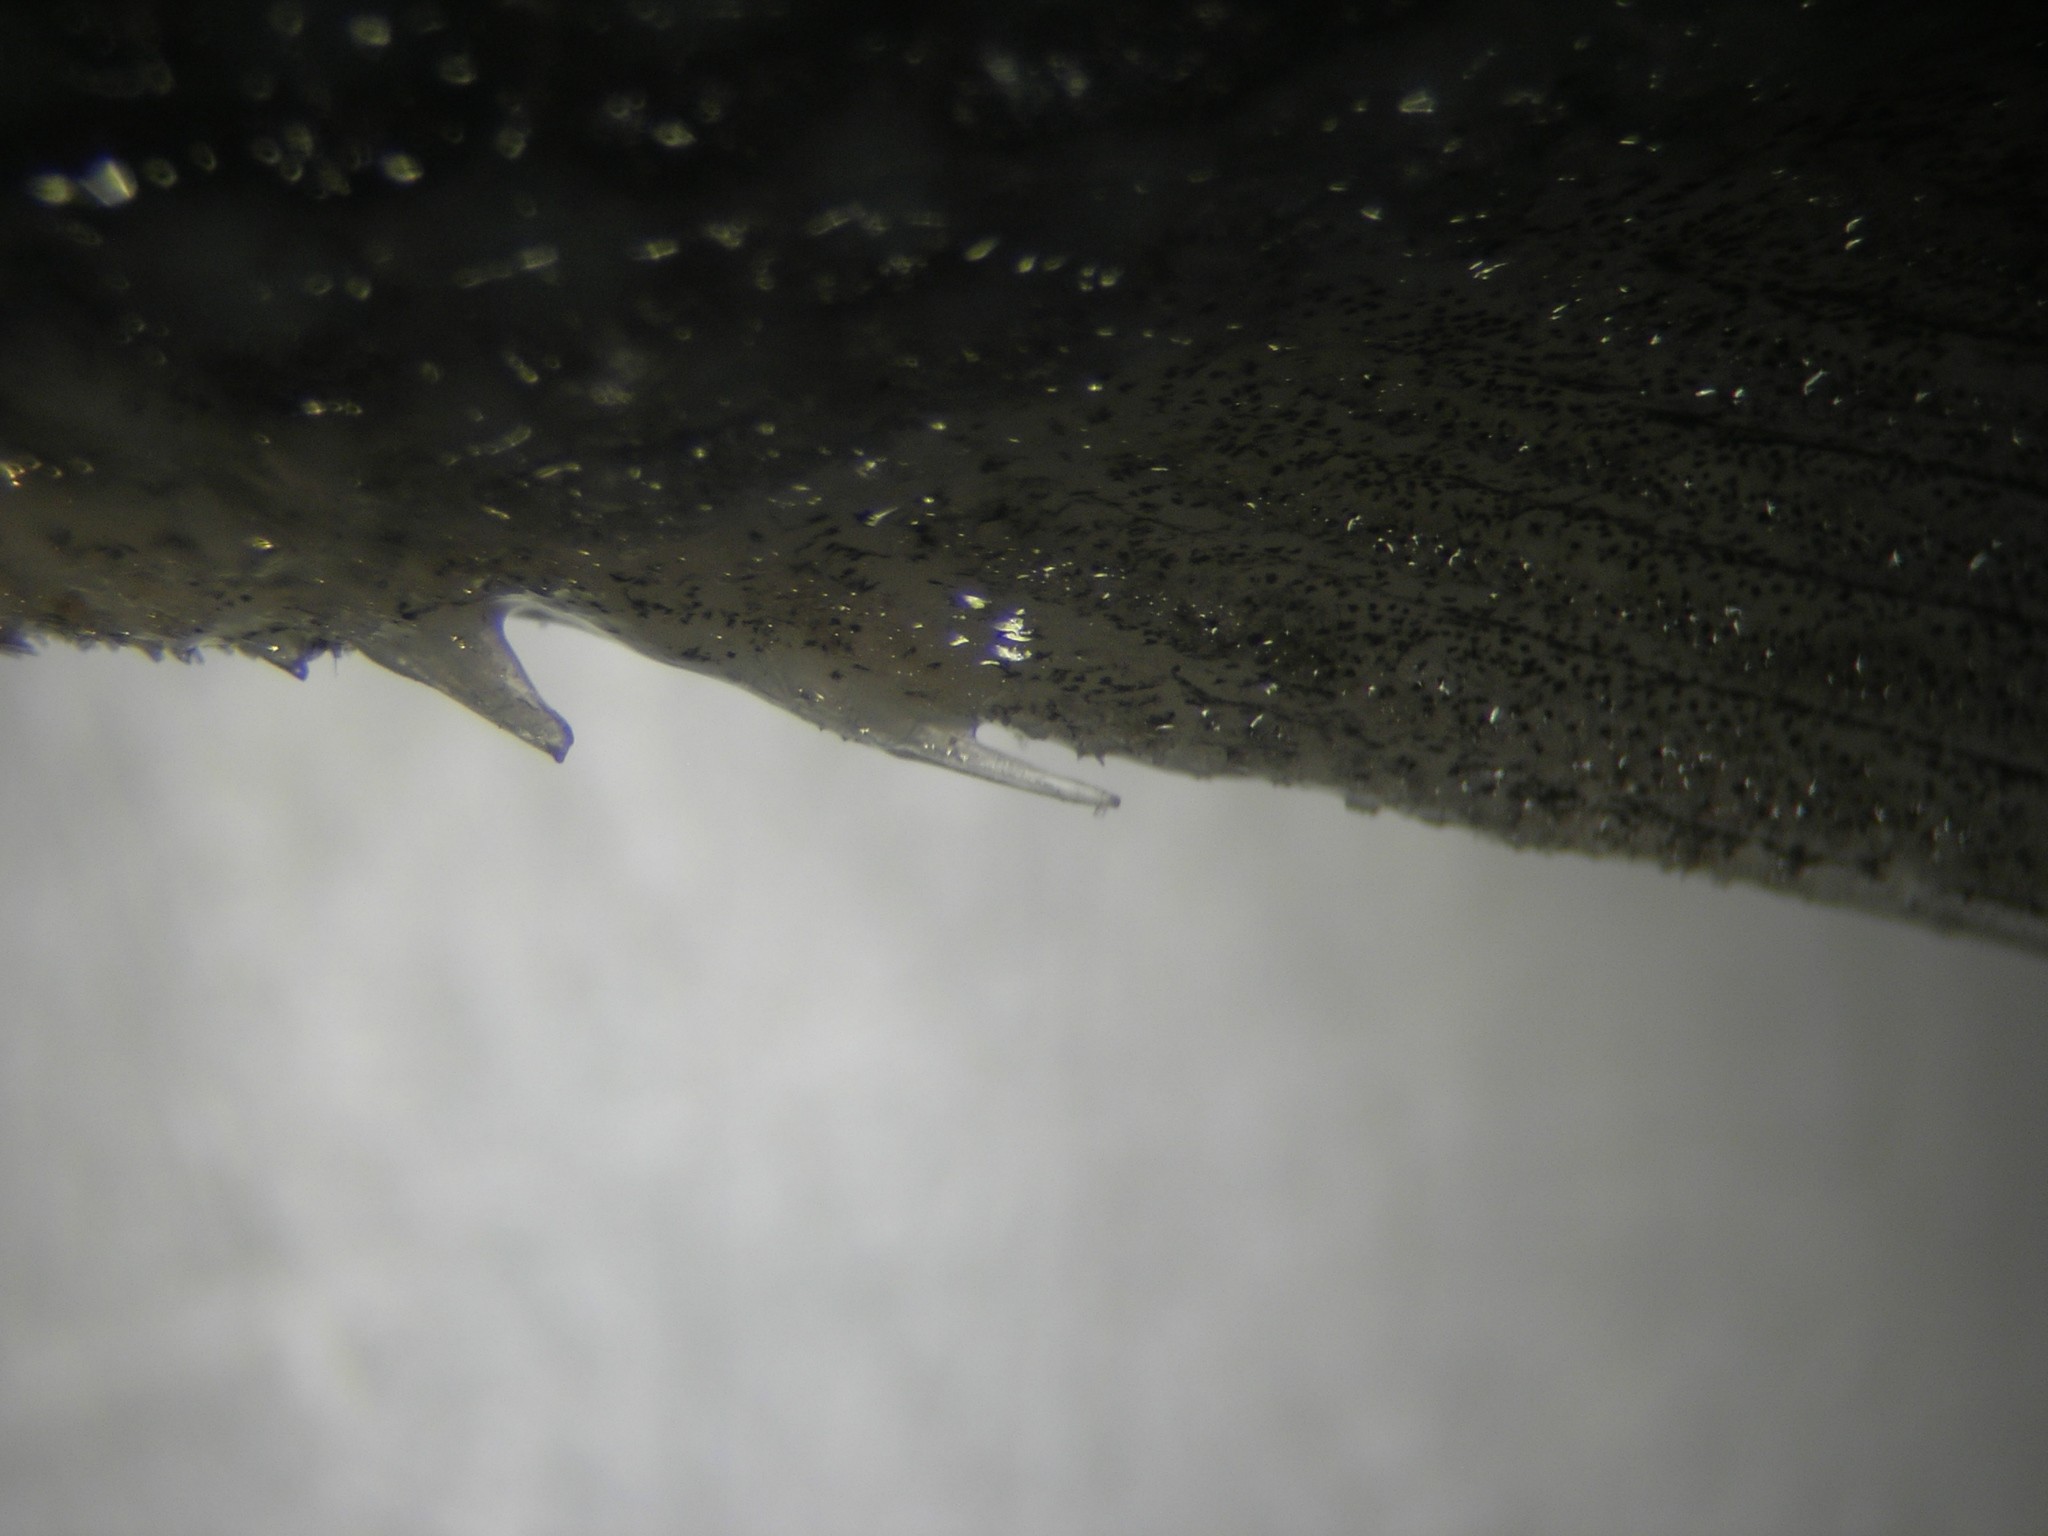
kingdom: Animalia
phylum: Chordata
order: Perciformes
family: Gempylidae
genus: Ruvettus
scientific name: Ruvettus pretiosus
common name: Oilfish
